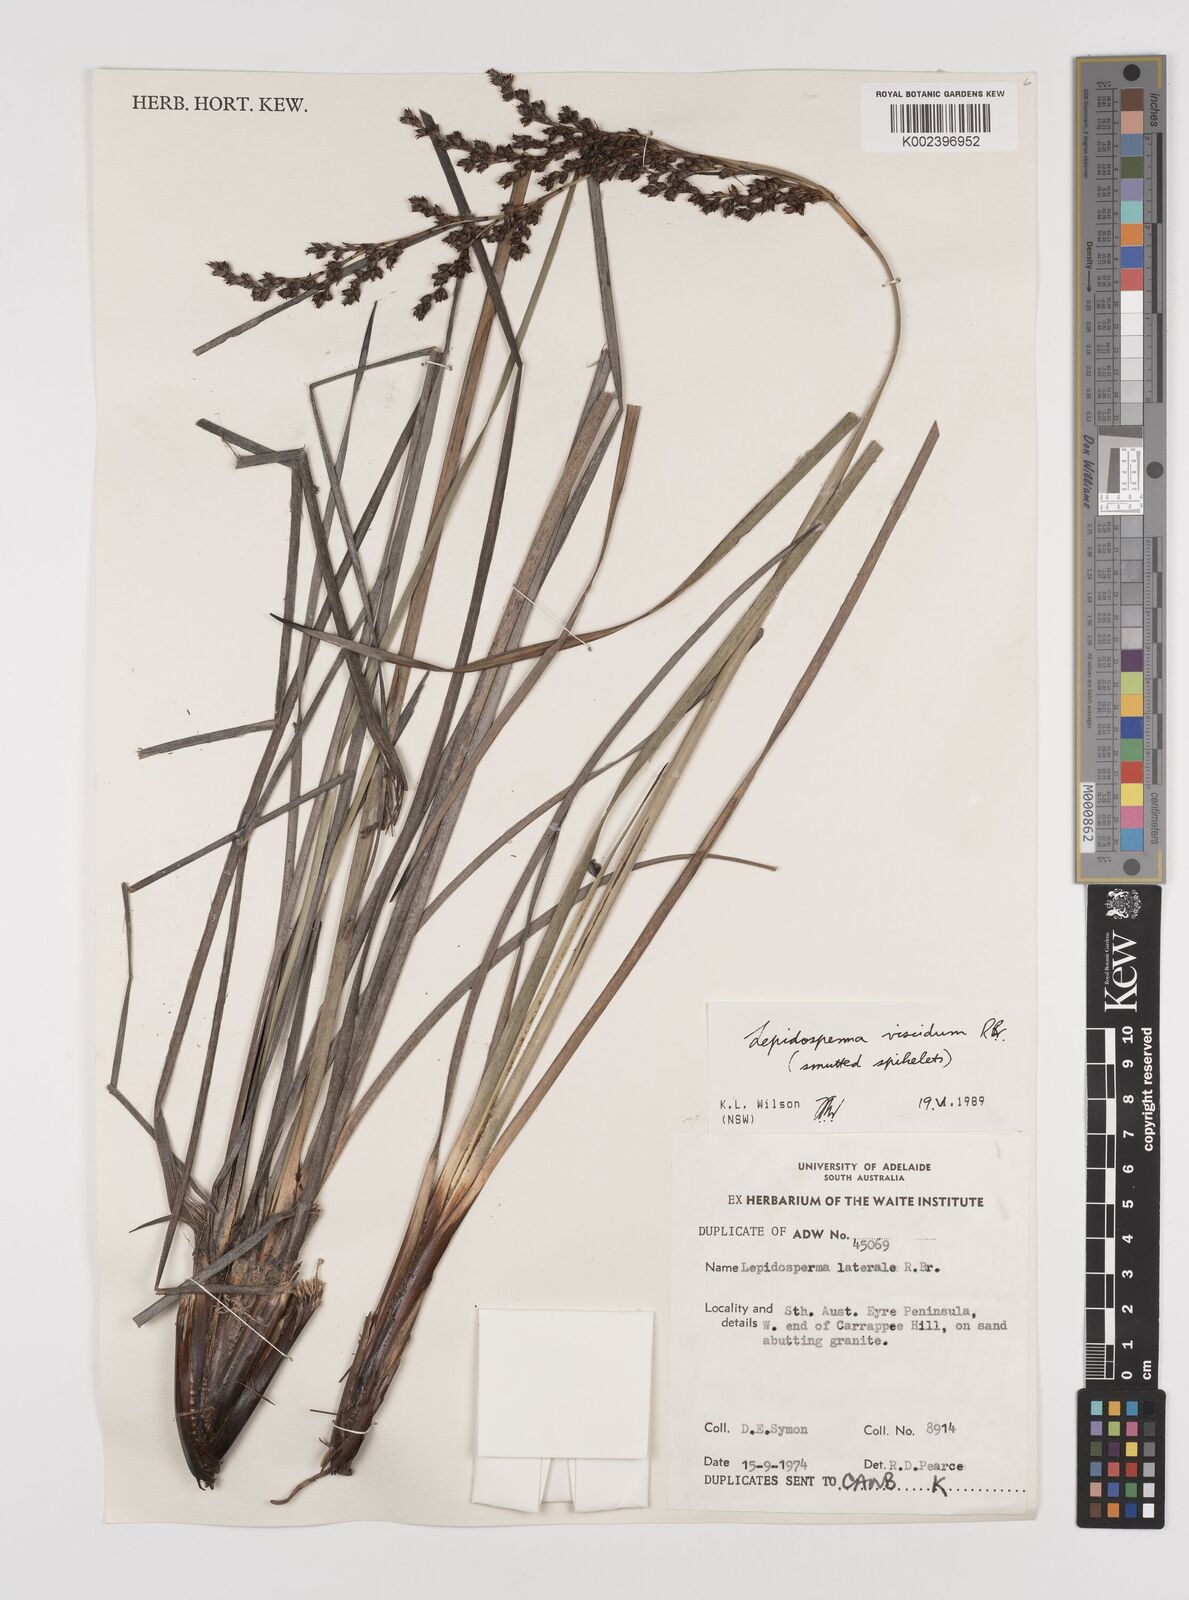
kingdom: Plantae
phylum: Tracheophyta
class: Liliopsida
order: Poales
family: Cyperaceae
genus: Lepidosperma
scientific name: Lepidosperma viscidum
